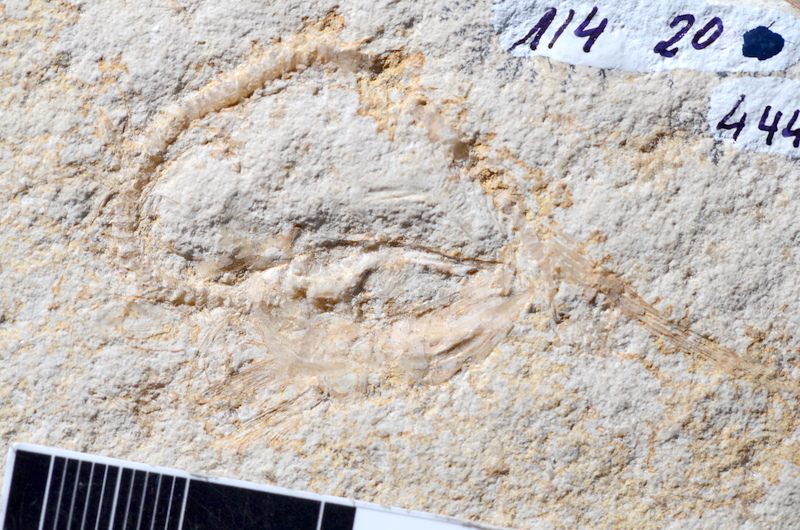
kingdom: Animalia
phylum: Chordata
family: Ascalaboidae
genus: Tharsis
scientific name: Tharsis dubius
